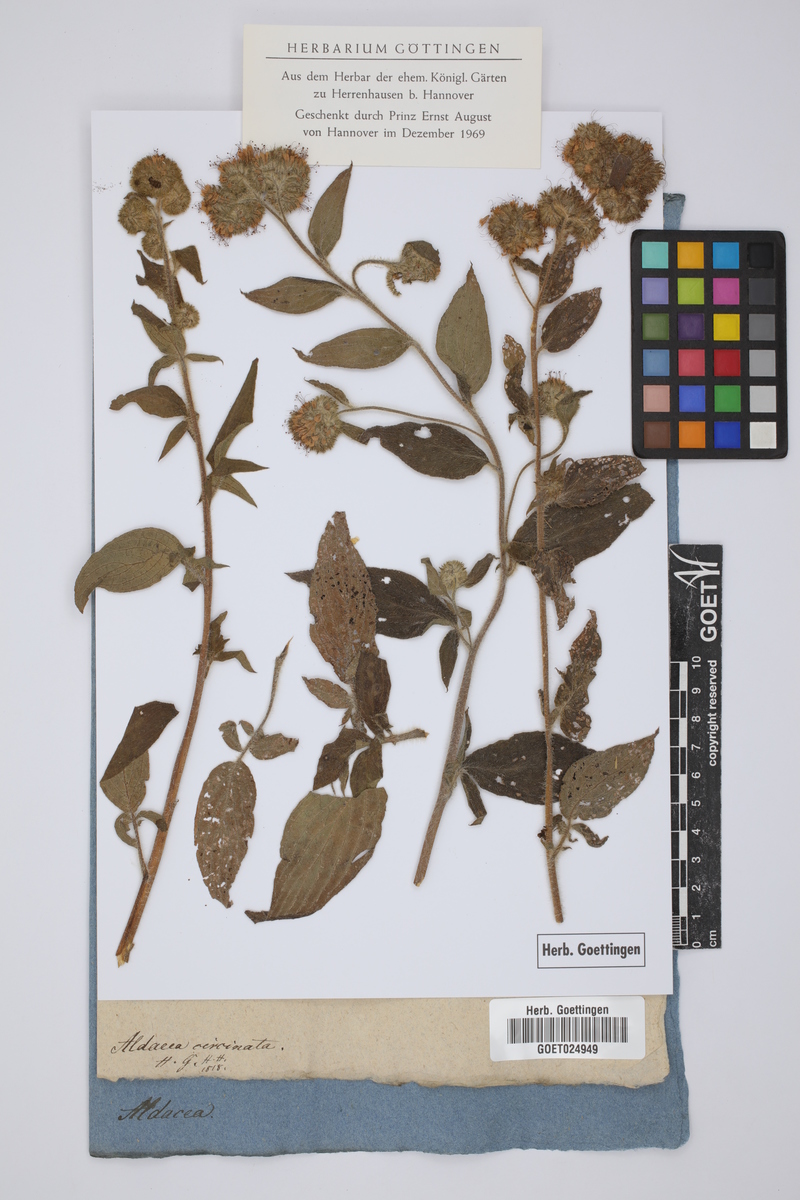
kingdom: Plantae
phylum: Tracheophyta
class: Magnoliopsida
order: Boraginales
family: Boraginaceae
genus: Aldanea
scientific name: Aldanea circinata
